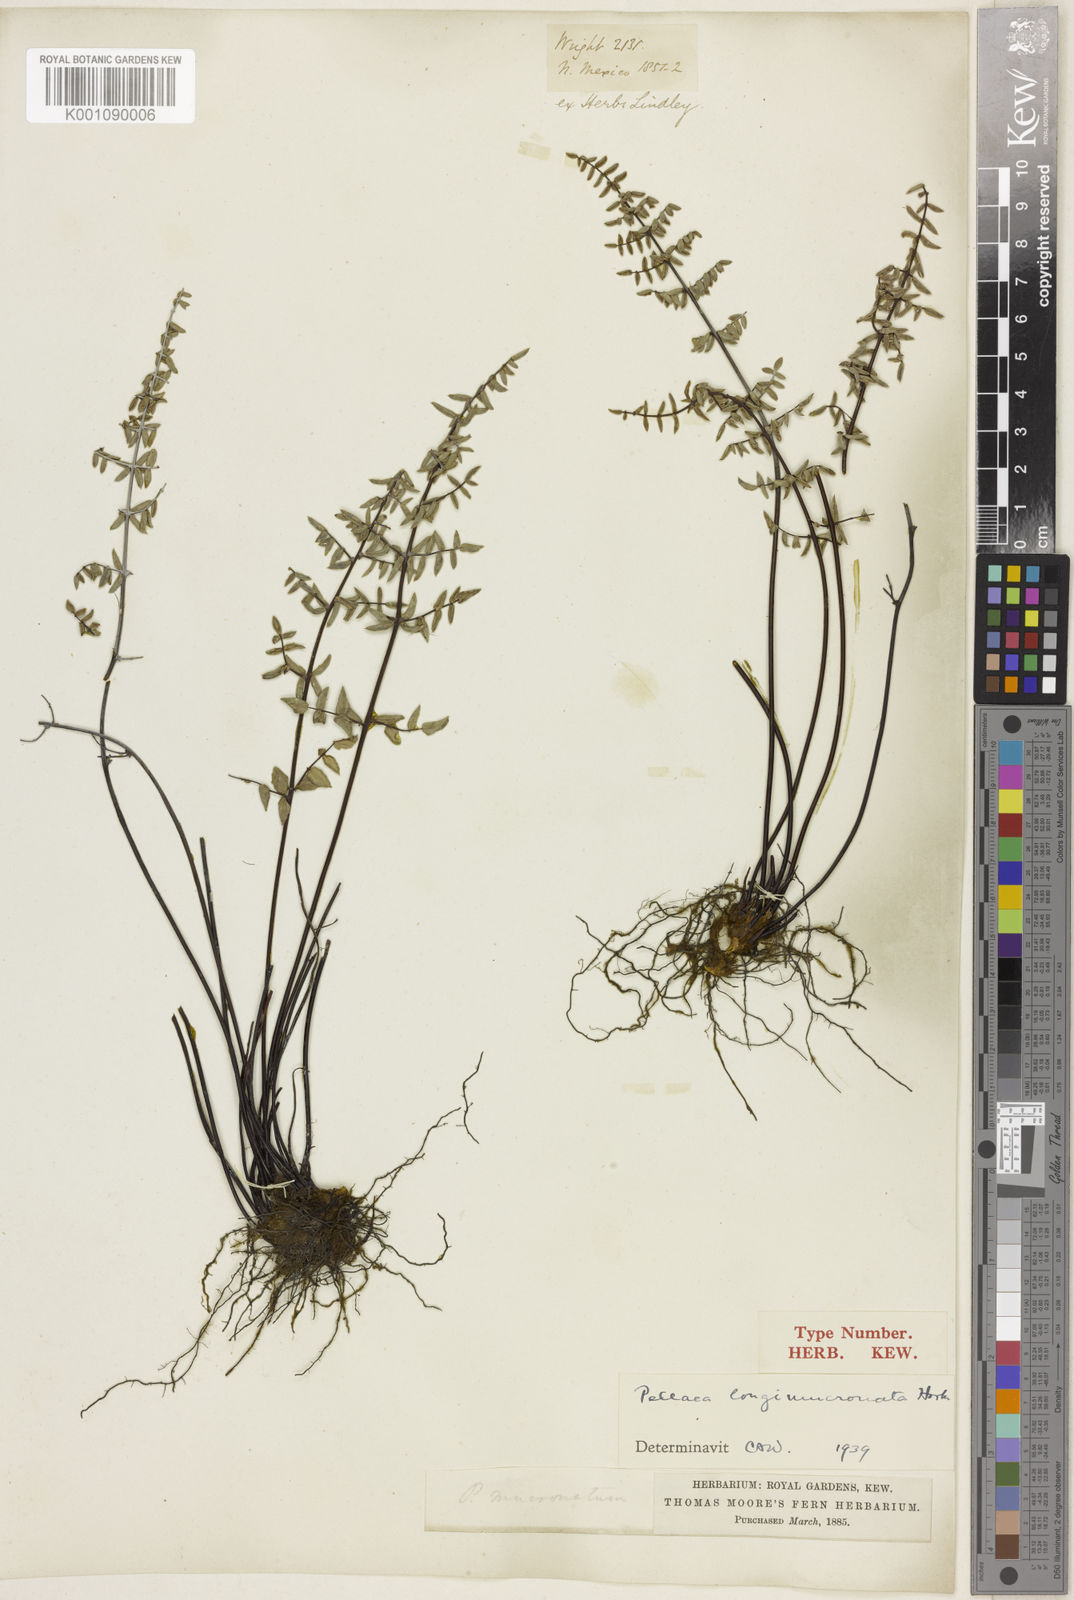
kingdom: Plantae
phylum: Tracheophyta
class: Polypodiopsida
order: Polypodiales
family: Pteridaceae
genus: Pellaea
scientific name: Pellaea mucronata
